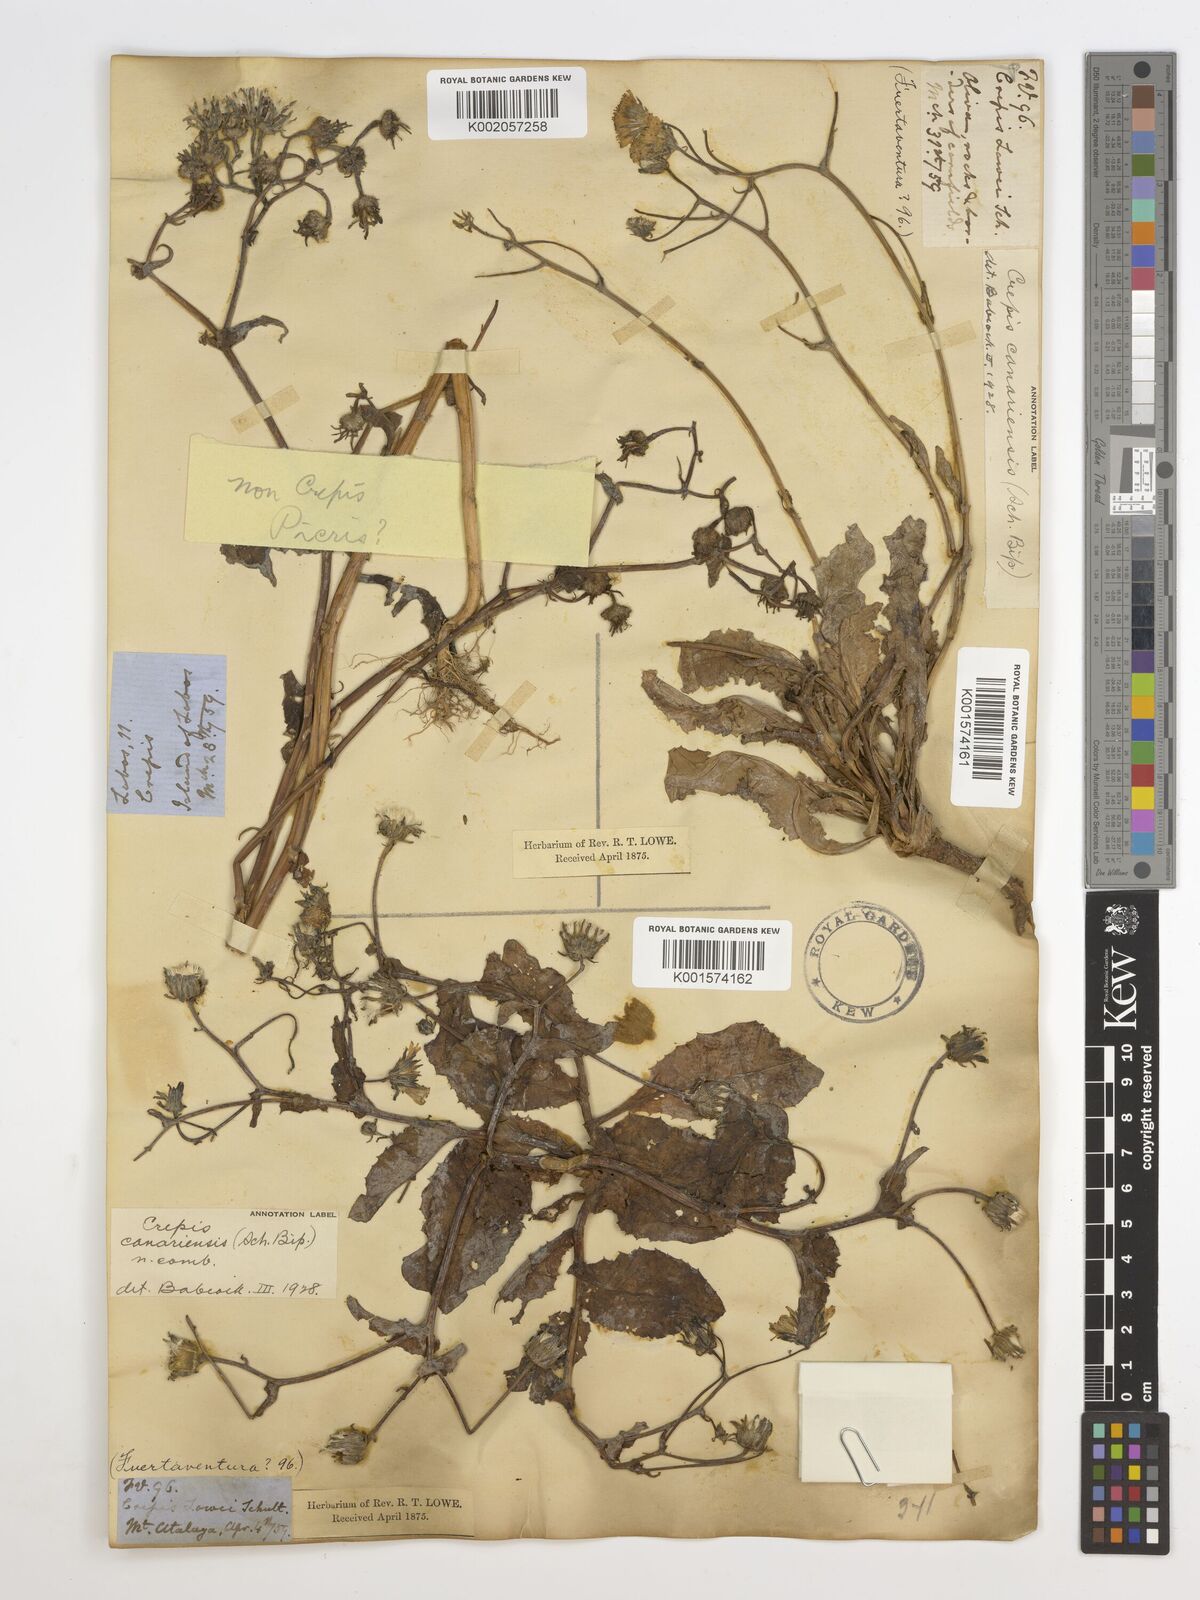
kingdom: Plantae
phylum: Tracheophyta
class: Magnoliopsida
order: Asterales
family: Asteraceae
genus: Crepis
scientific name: Crepis canariensis
